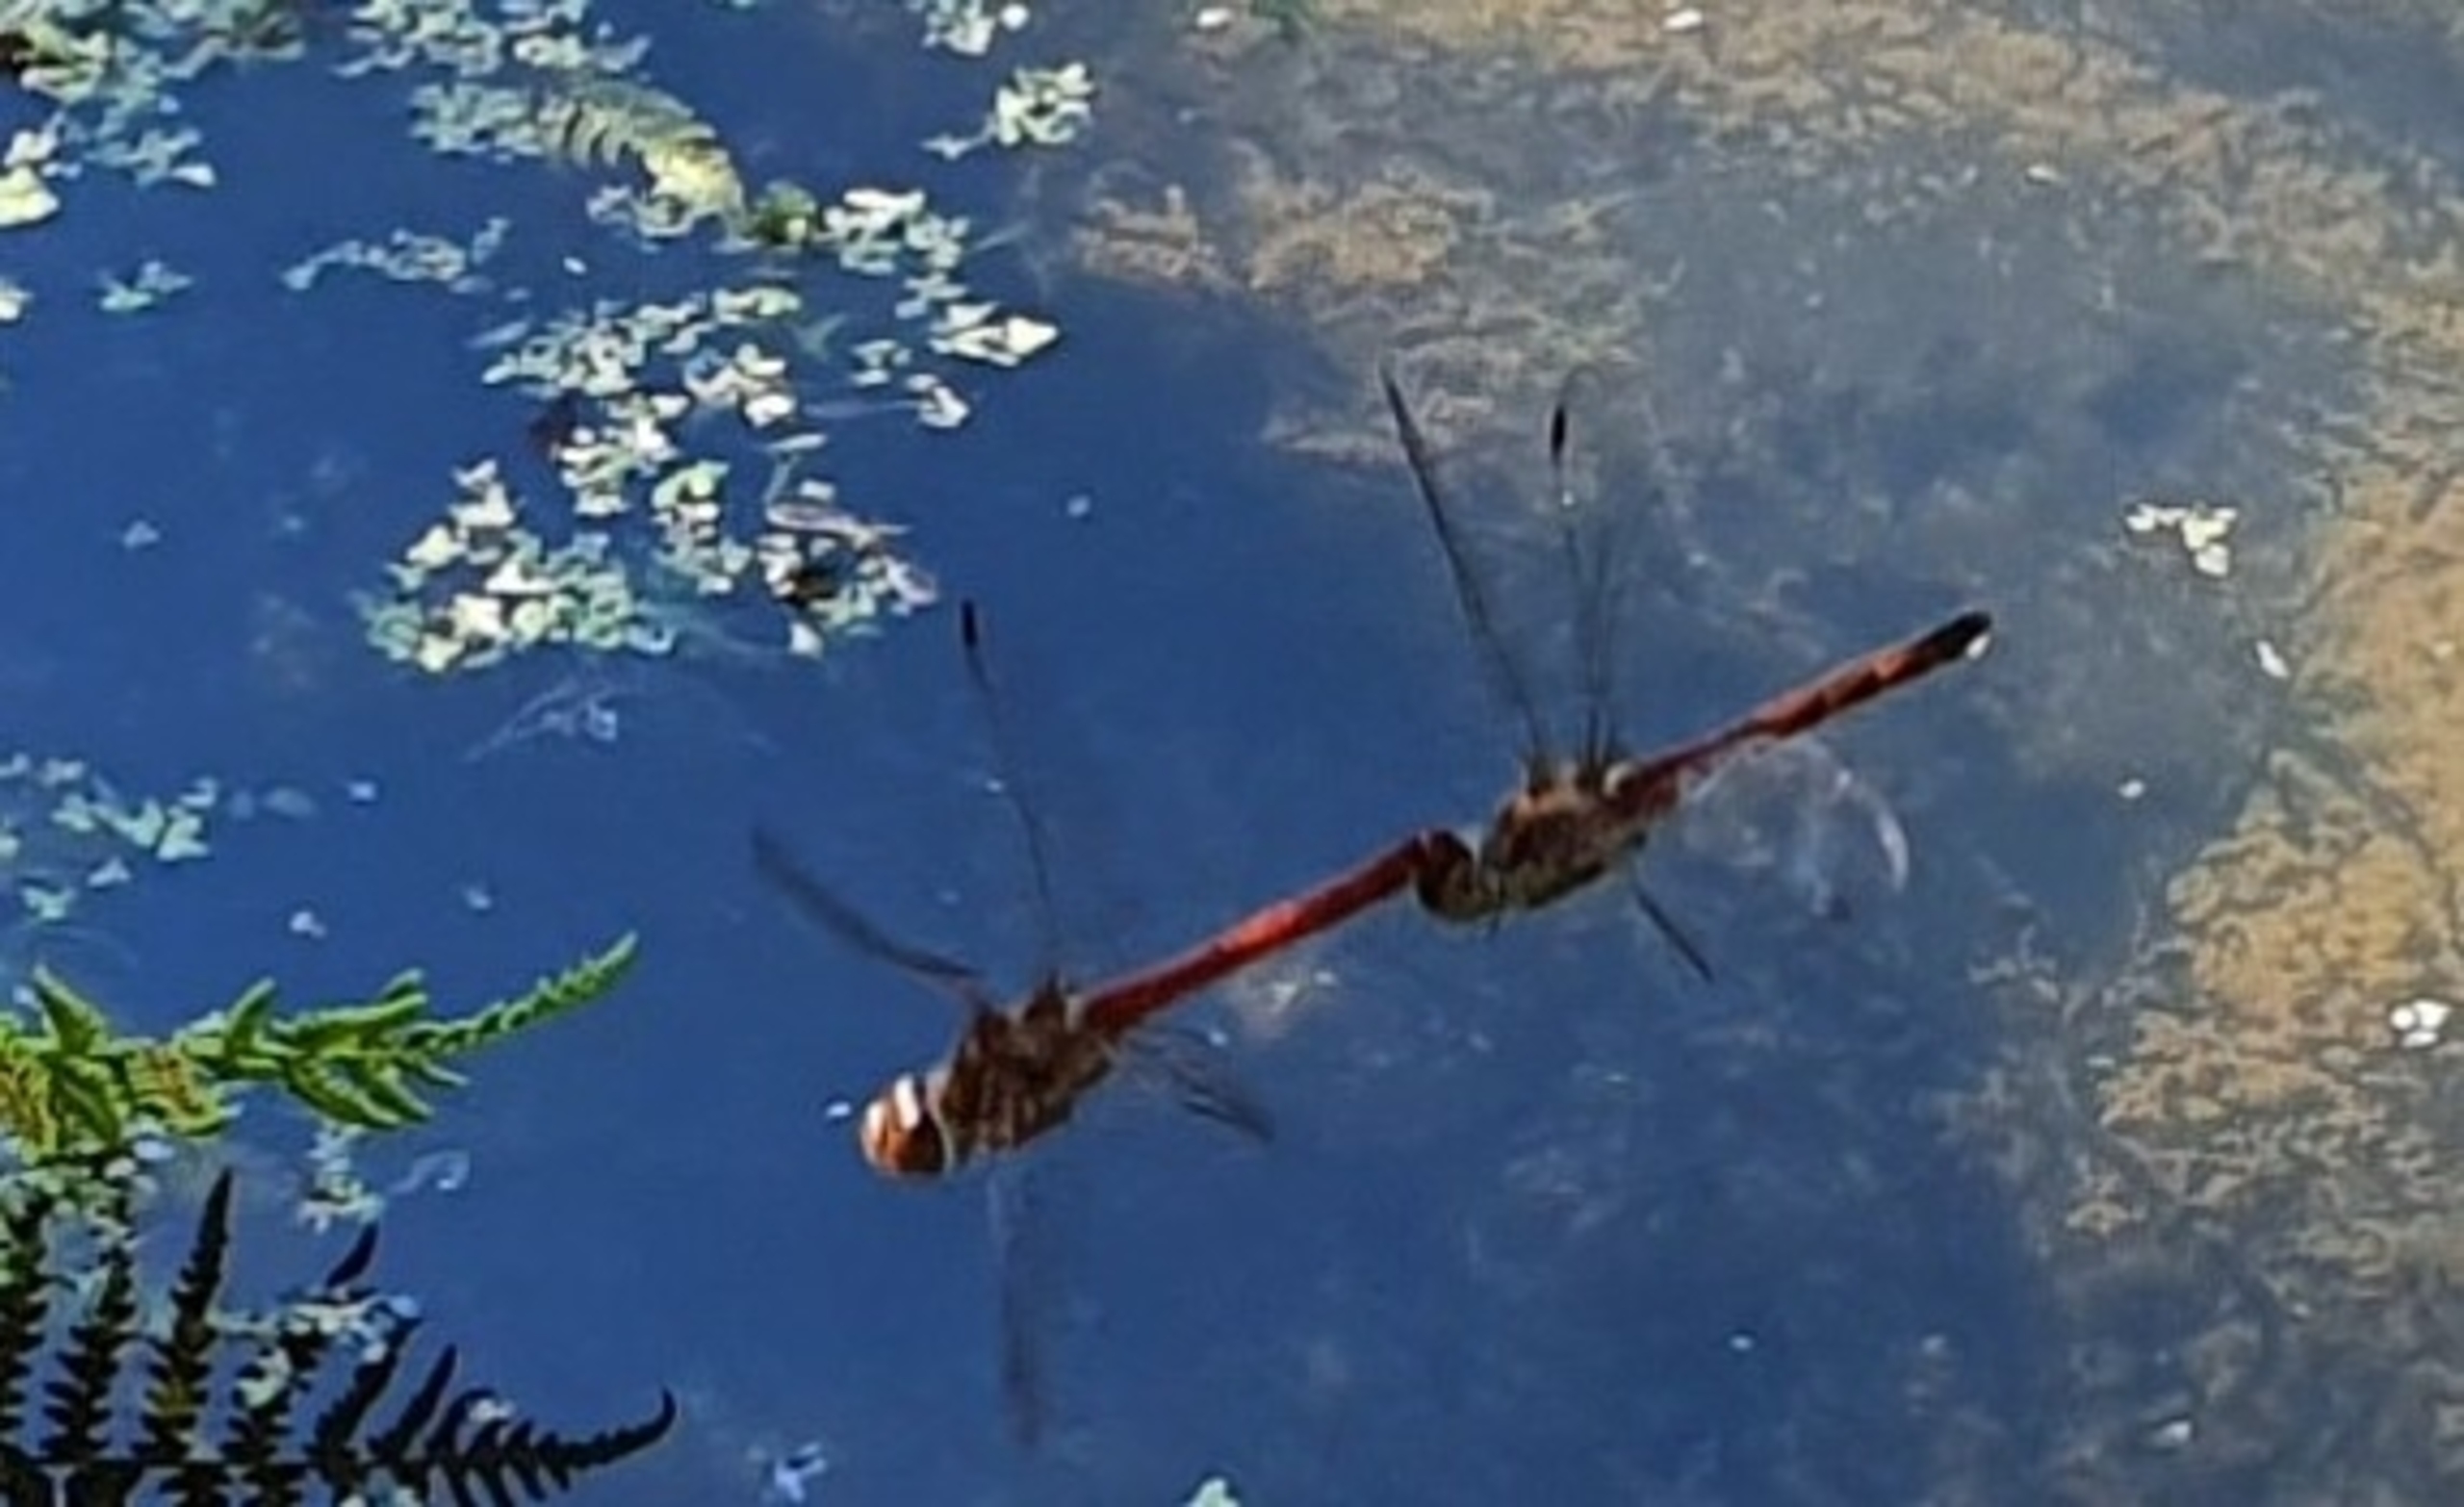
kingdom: Animalia
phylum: Arthropoda
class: Insecta
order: Odonata
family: Libellulidae
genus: Sympetrum
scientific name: Sympetrum sanguineum
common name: Blodrød hedelibel
